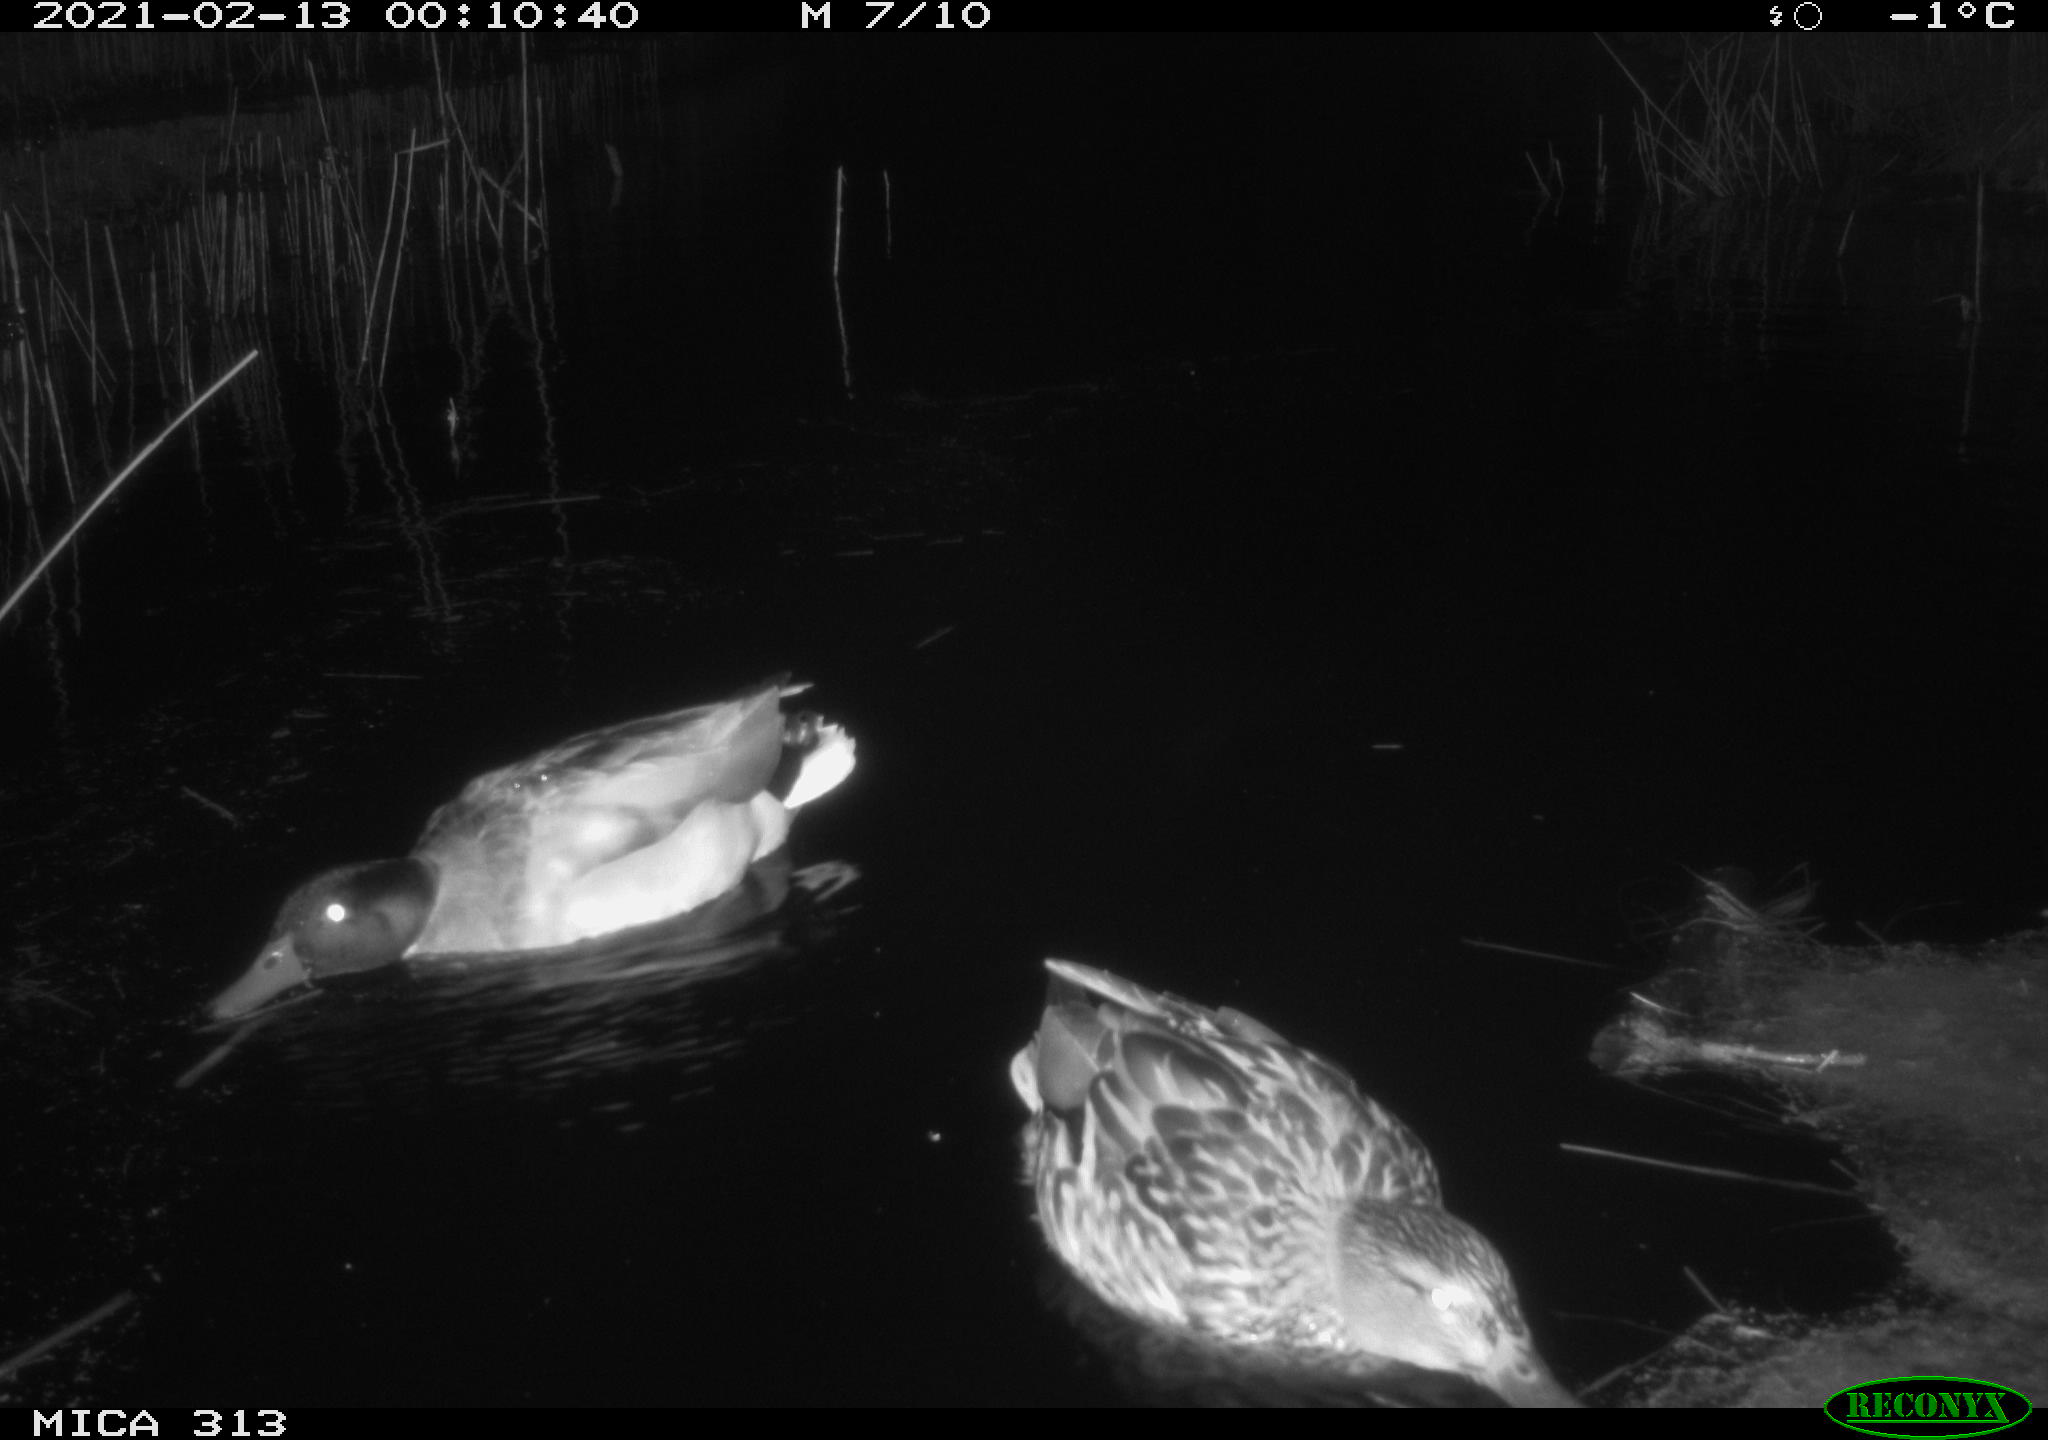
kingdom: Animalia
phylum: Chordata
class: Aves
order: Anseriformes
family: Anatidae
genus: Anas
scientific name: Anas
